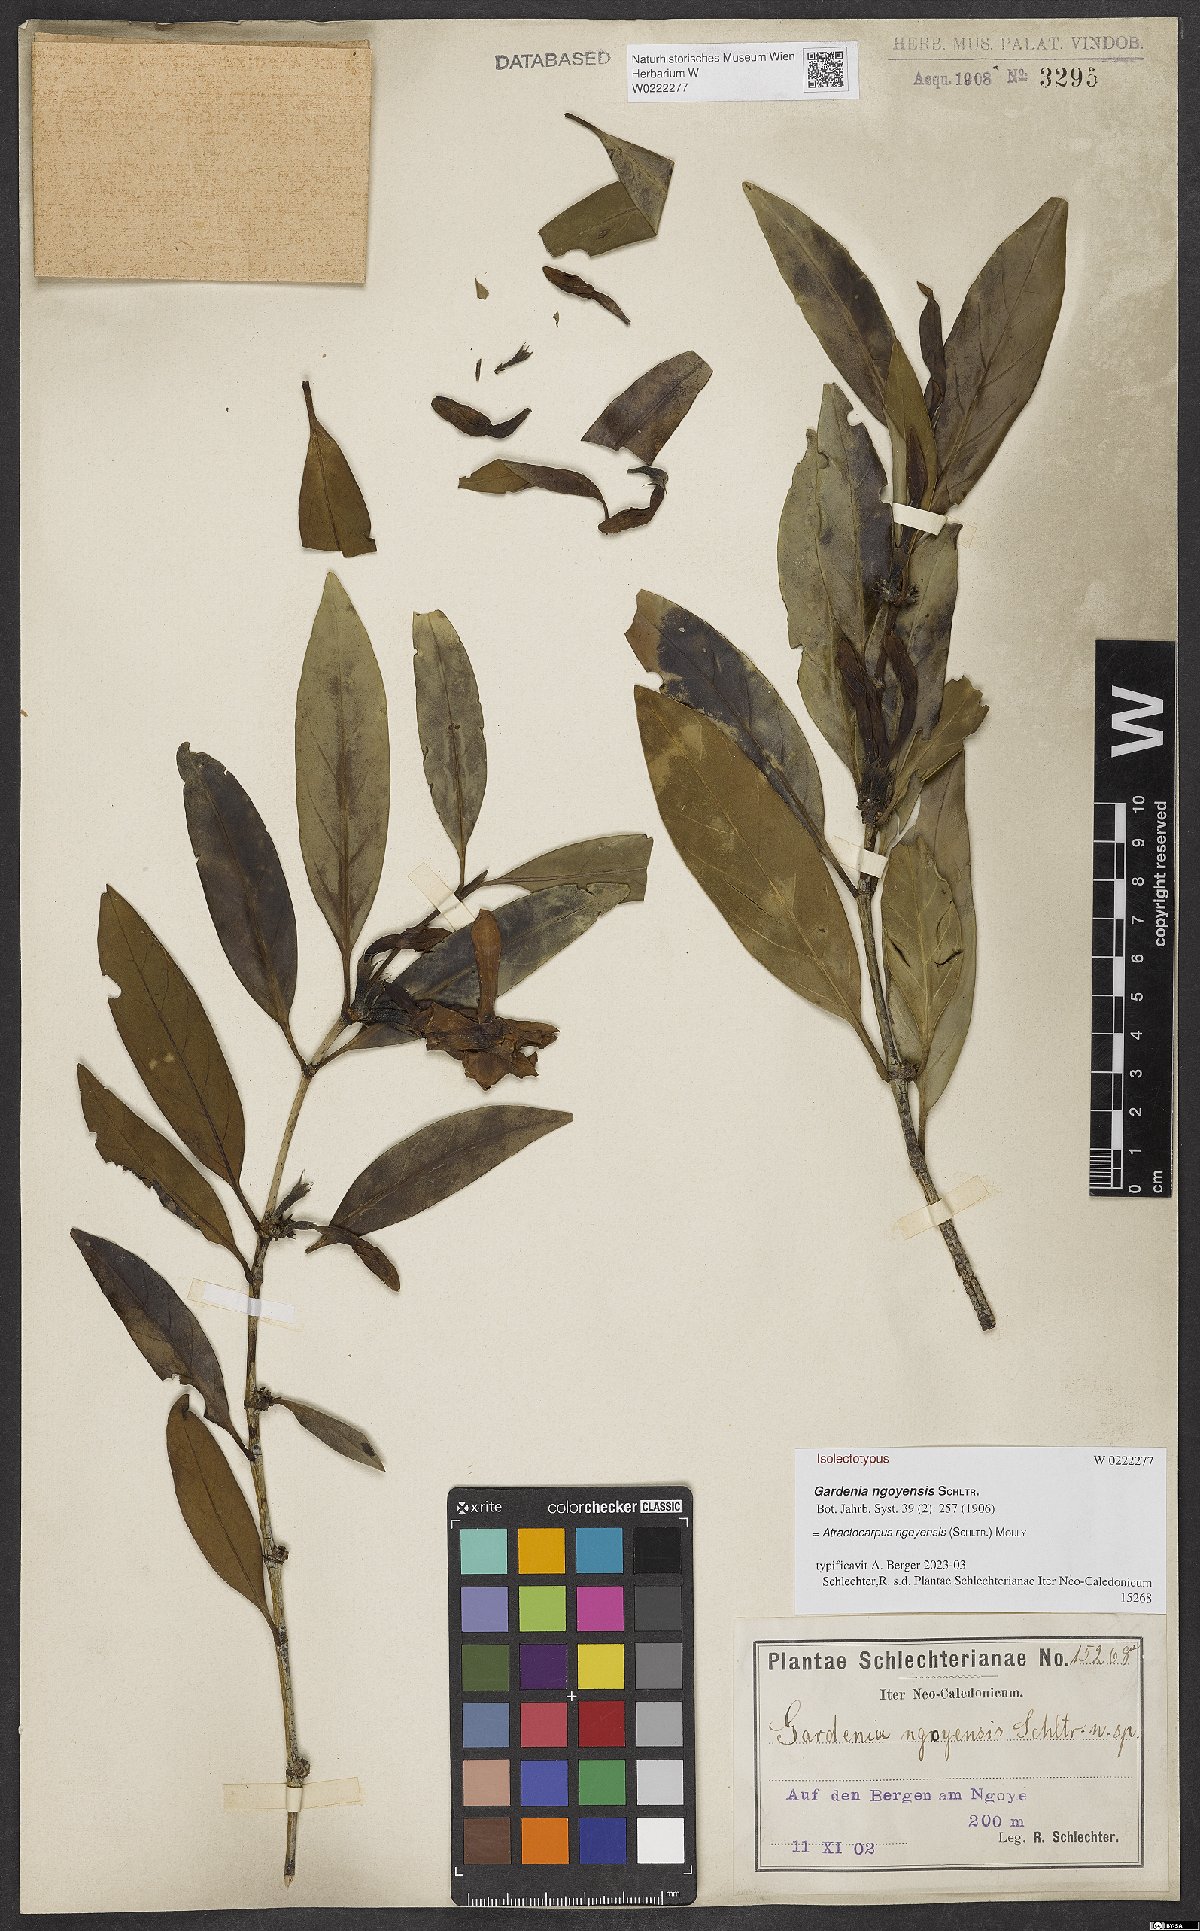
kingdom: Plantae
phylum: Tracheophyta
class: Magnoliopsida
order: Gentianales
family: Rubiaceae
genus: Atractocarpus
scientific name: Atractocarpus ngoyensis
